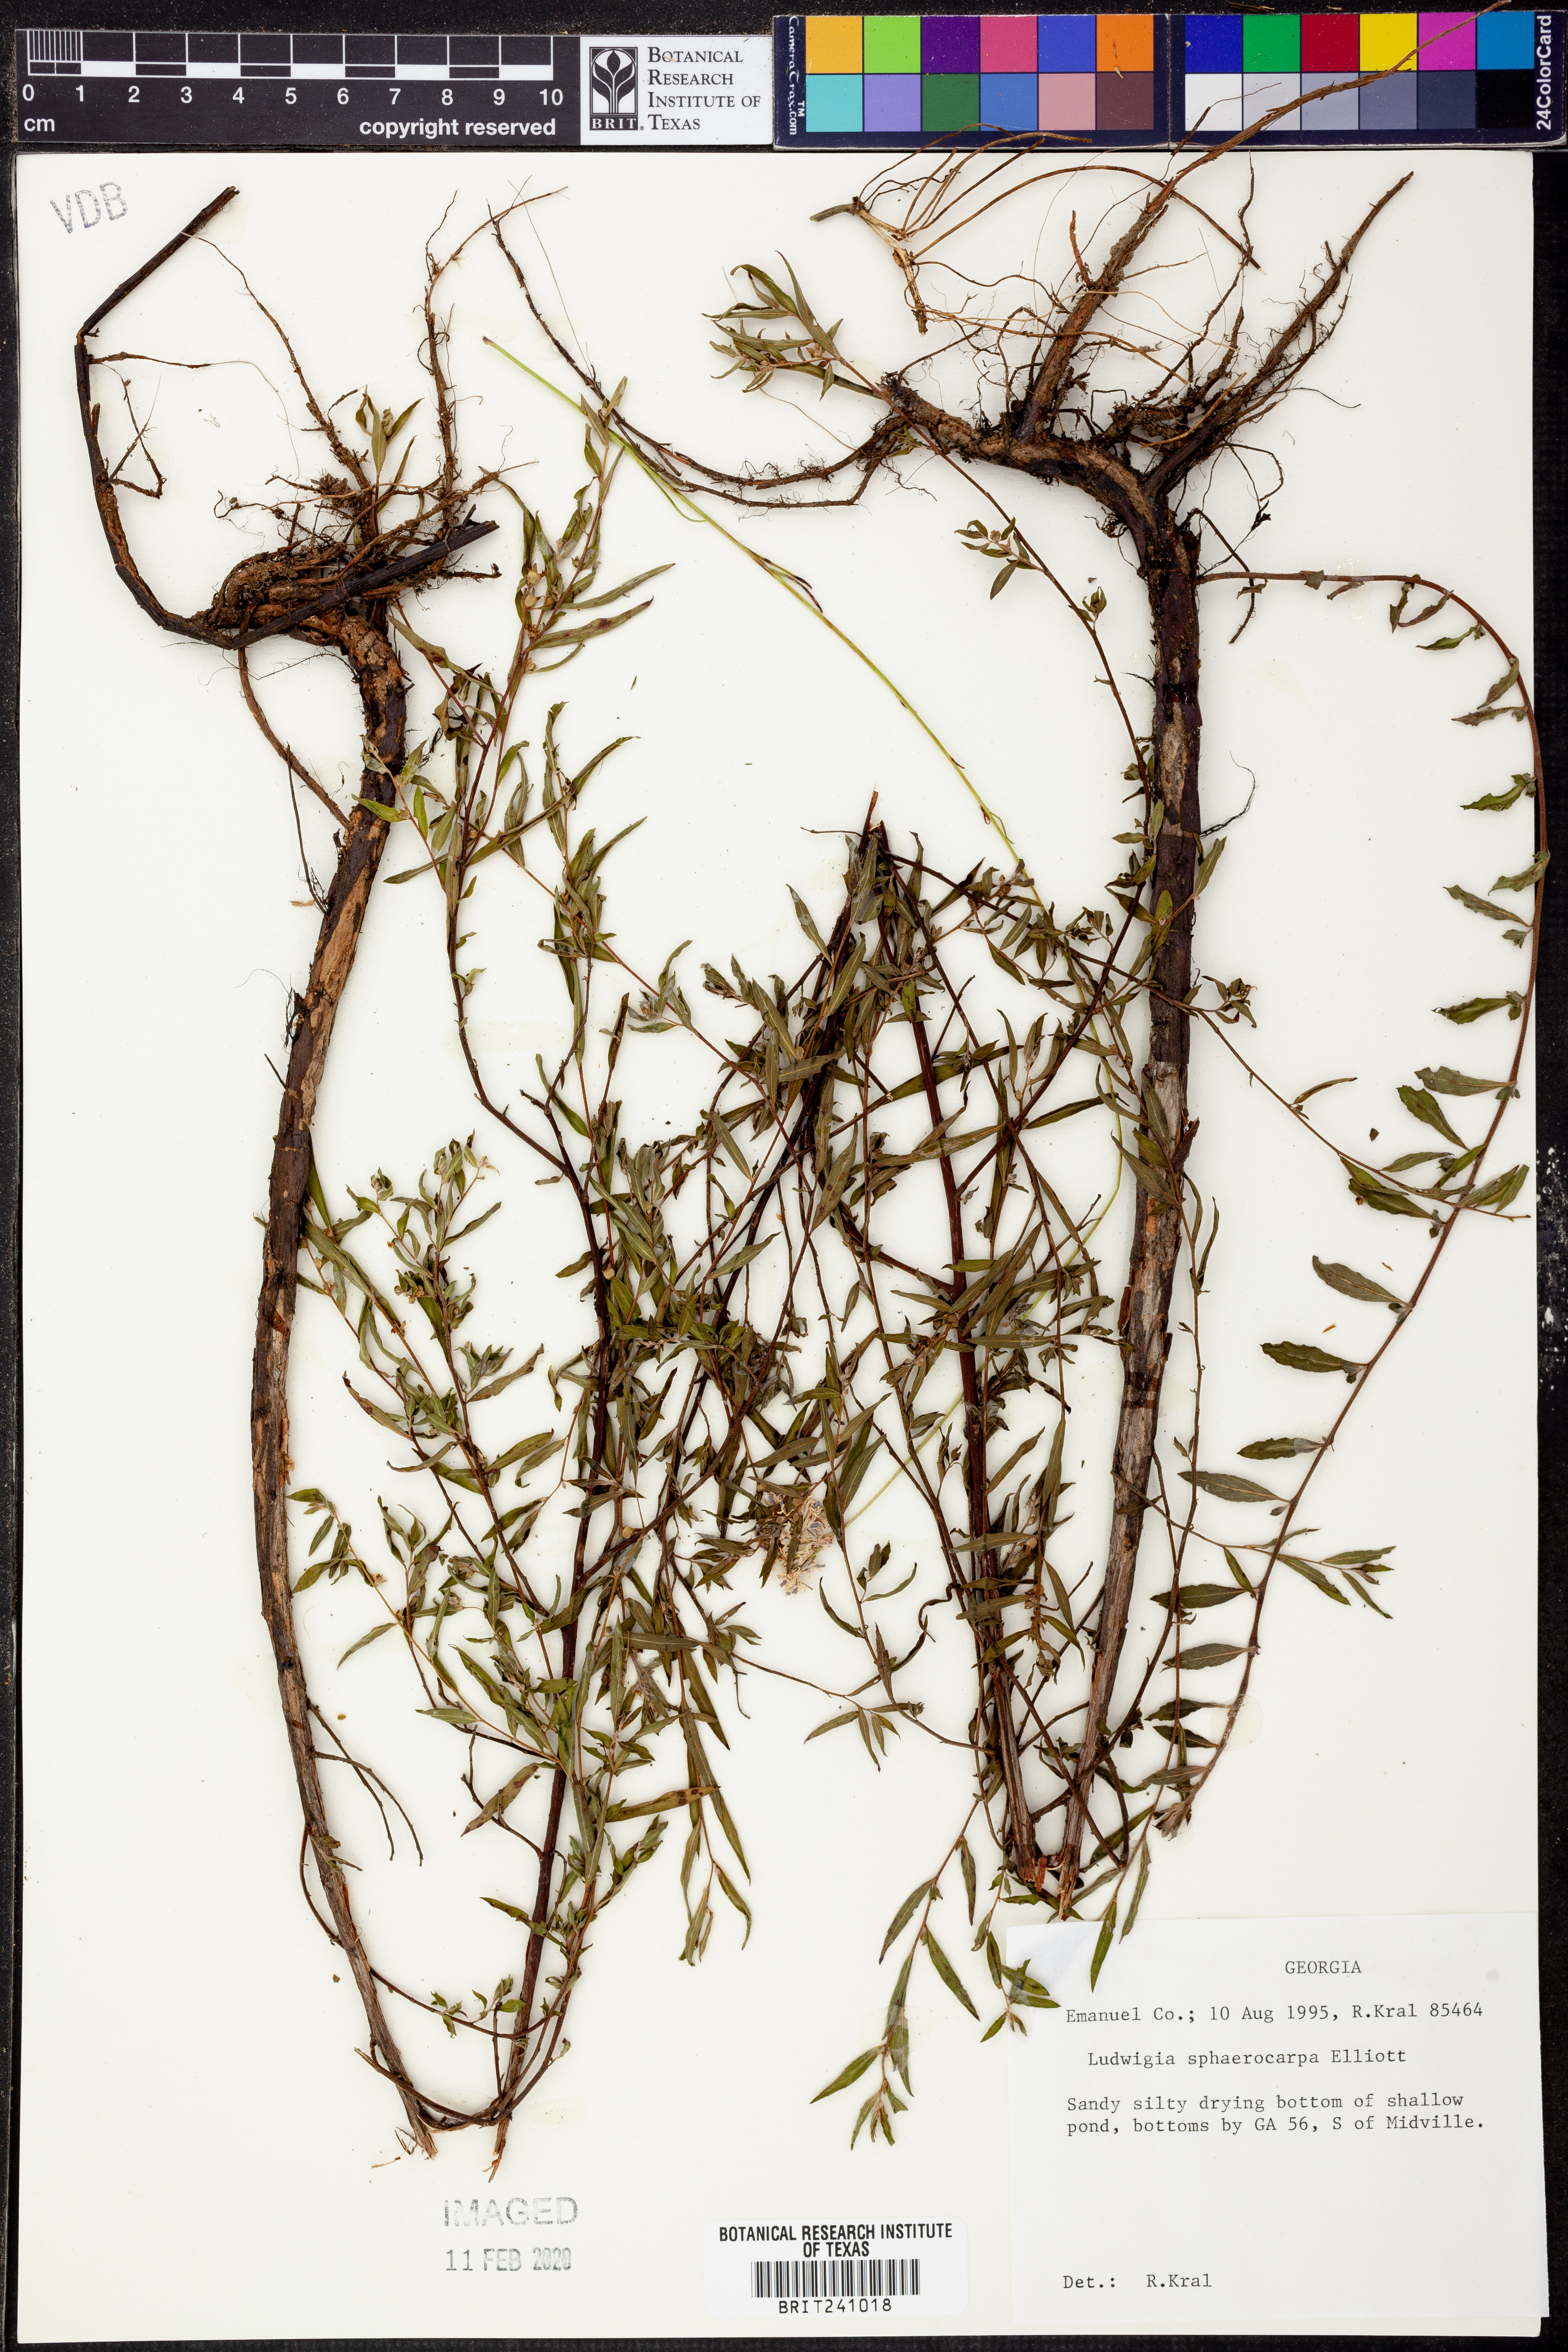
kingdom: Plantae
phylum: Tracheophyta
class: Magnoliopsida
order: Myrtales
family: Onagraceae
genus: Ludwigia
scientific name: Ludwigia sphaerocarpa
